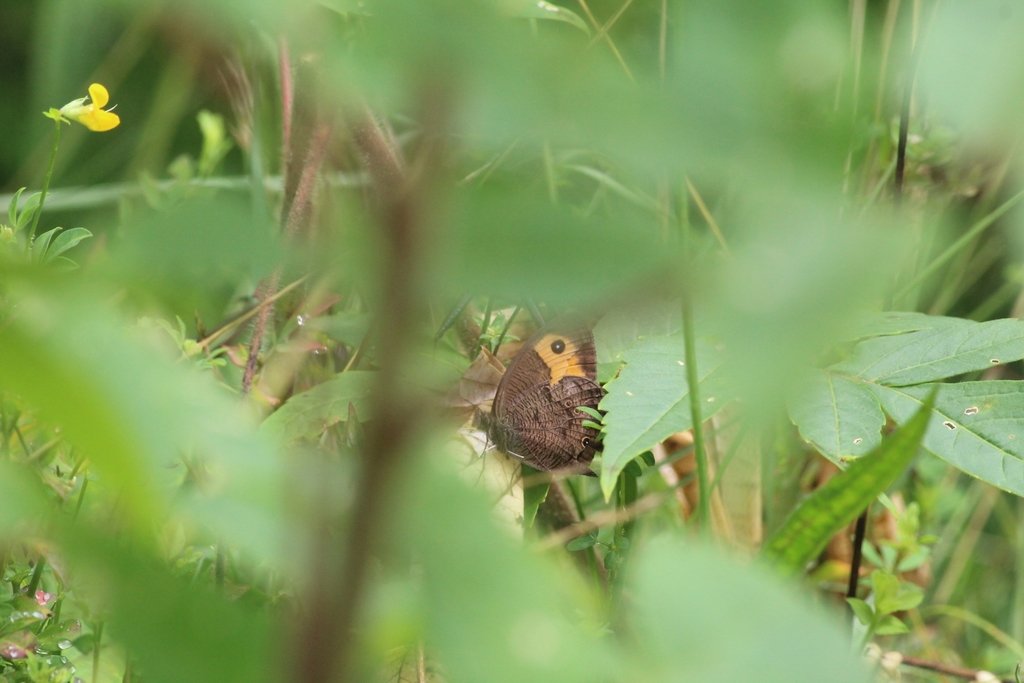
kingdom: Animalia
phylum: Arthropoda
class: Insecta
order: Lepidoptera
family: Nymphalidae
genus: Cercyonis
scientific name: Cercyonis pegala
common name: Common Wood-Nymph
